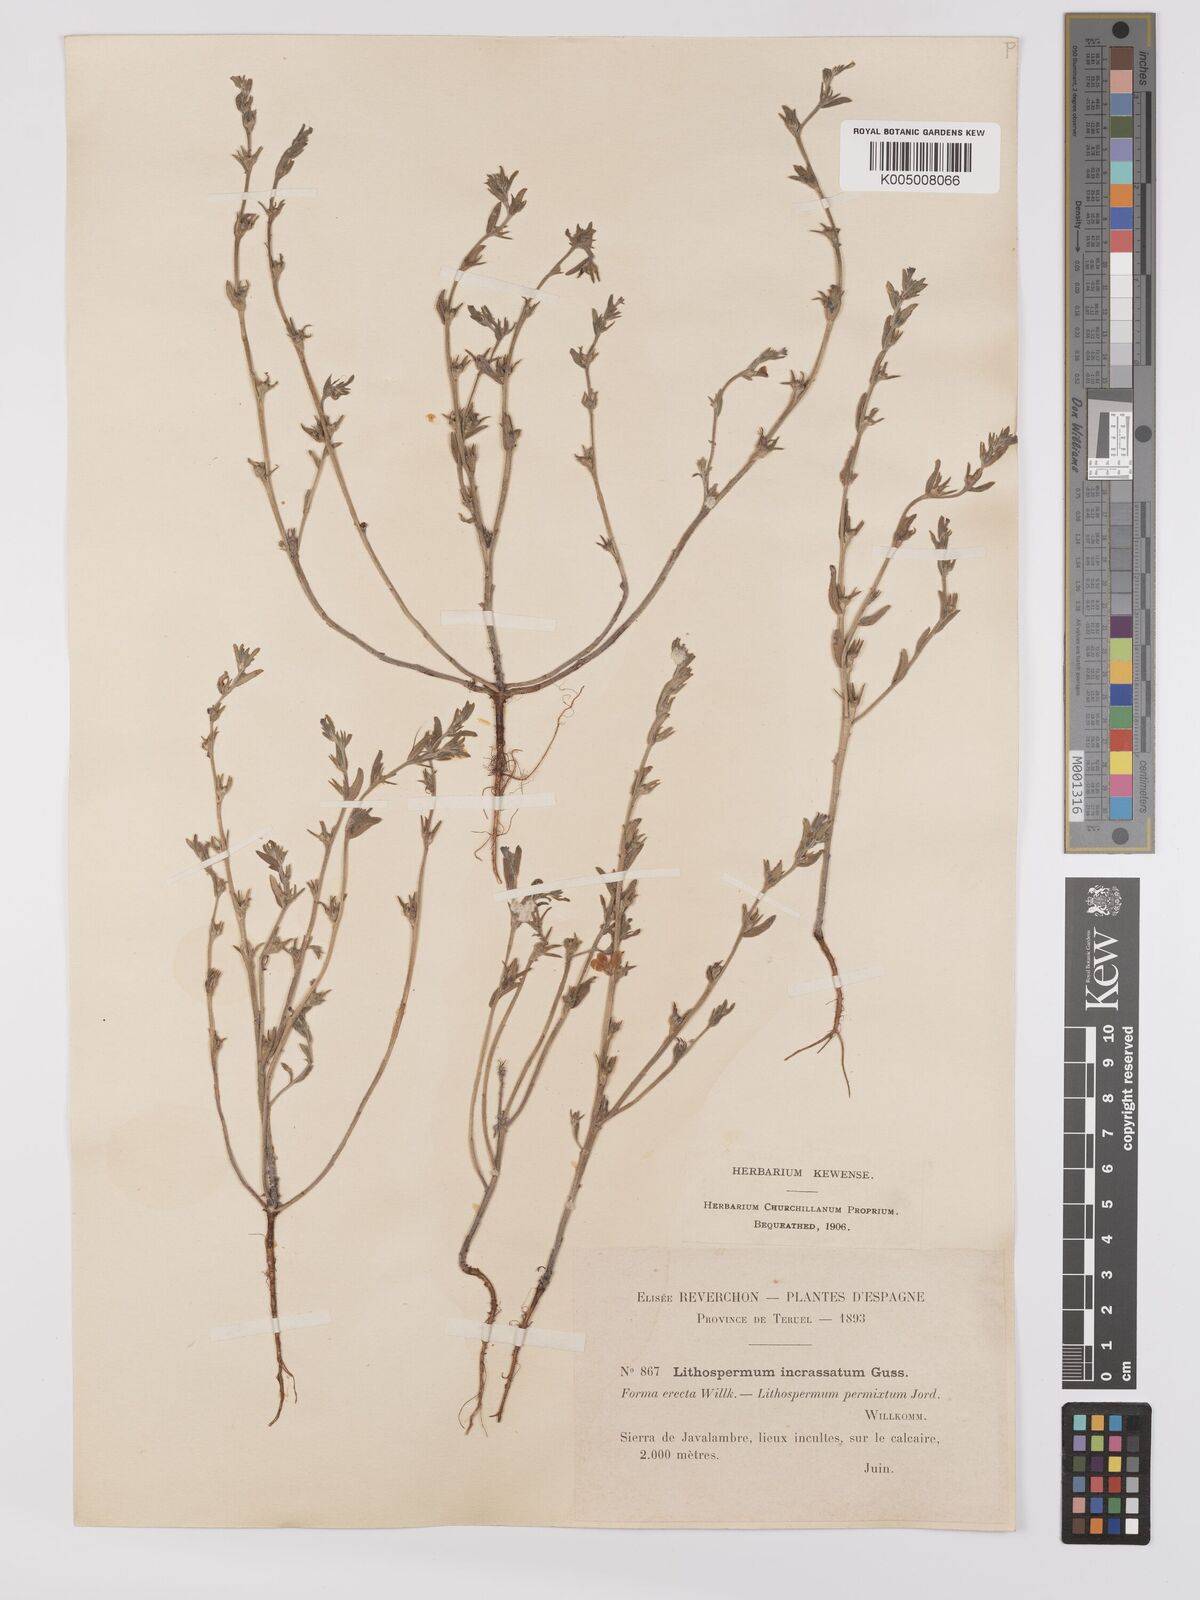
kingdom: Plantae
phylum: Tracheophyta
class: Magnoliopsida
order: Boraginales
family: Boraginaceae
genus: Buglossoides
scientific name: Buglossoides incrassata
